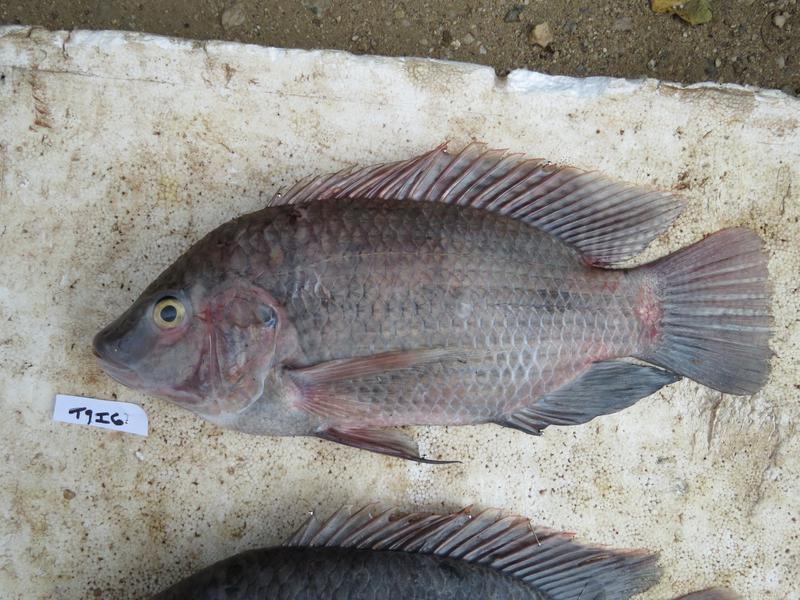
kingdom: Animalia
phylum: Chordata
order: Perciformes
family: Cichlidae
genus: Oreochromis
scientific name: Oreochromis urolepis
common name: Wami tilapia
